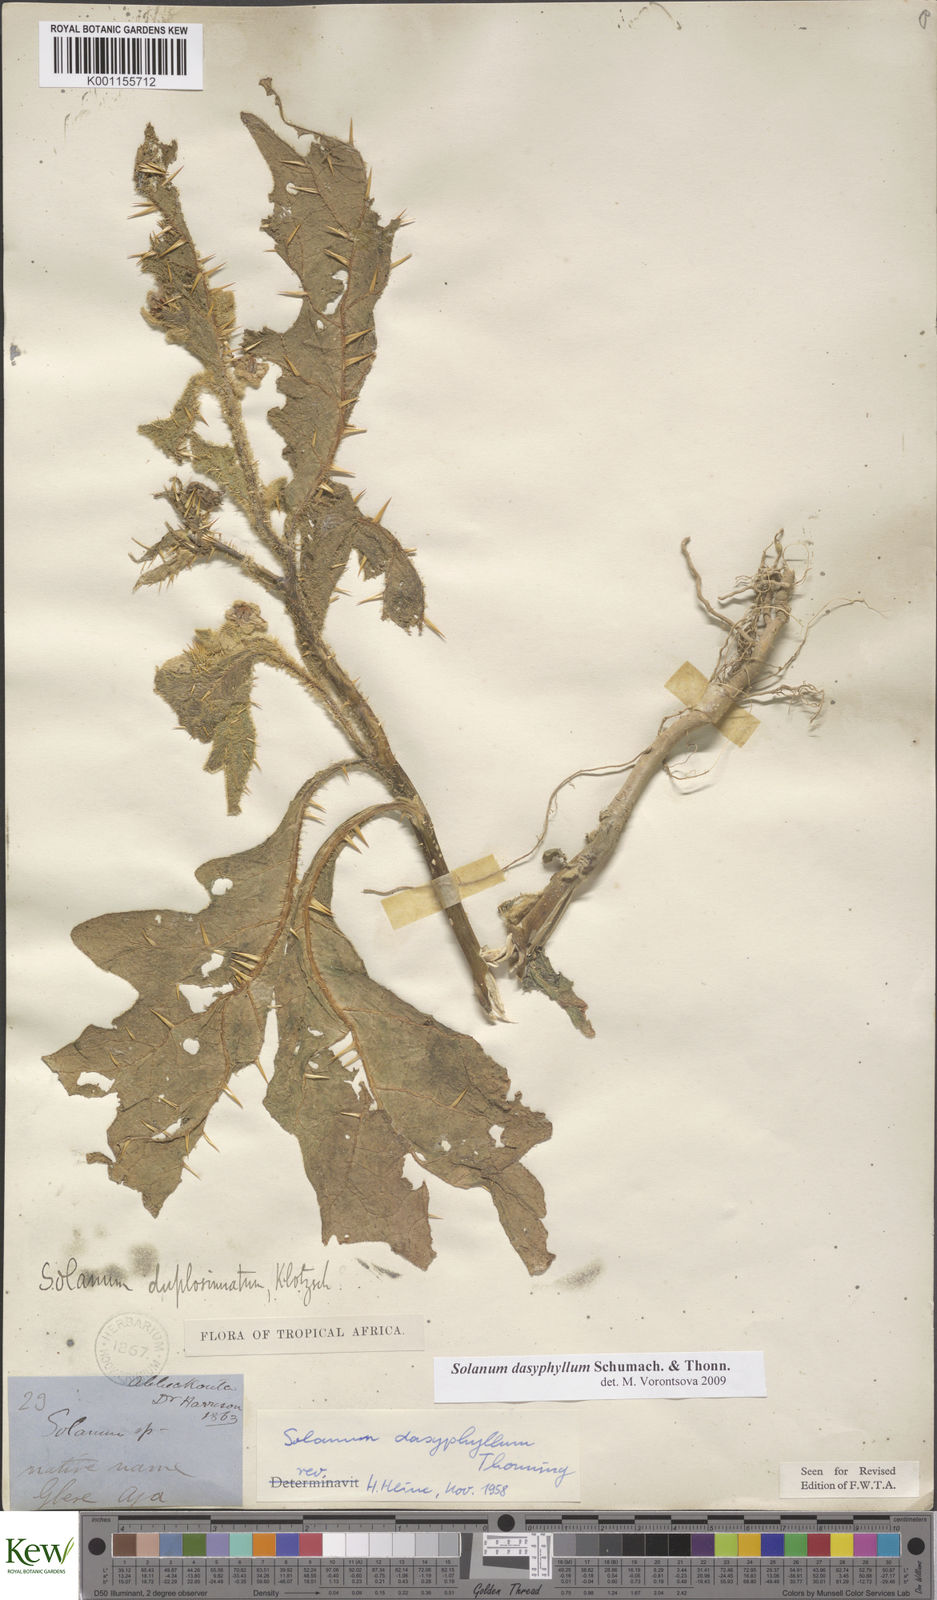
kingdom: Plantae
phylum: Tracheophyta
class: Magnoliopsida
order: Solanales
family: Solanaceae
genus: Solanum
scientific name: Solanum dasyphyllum
